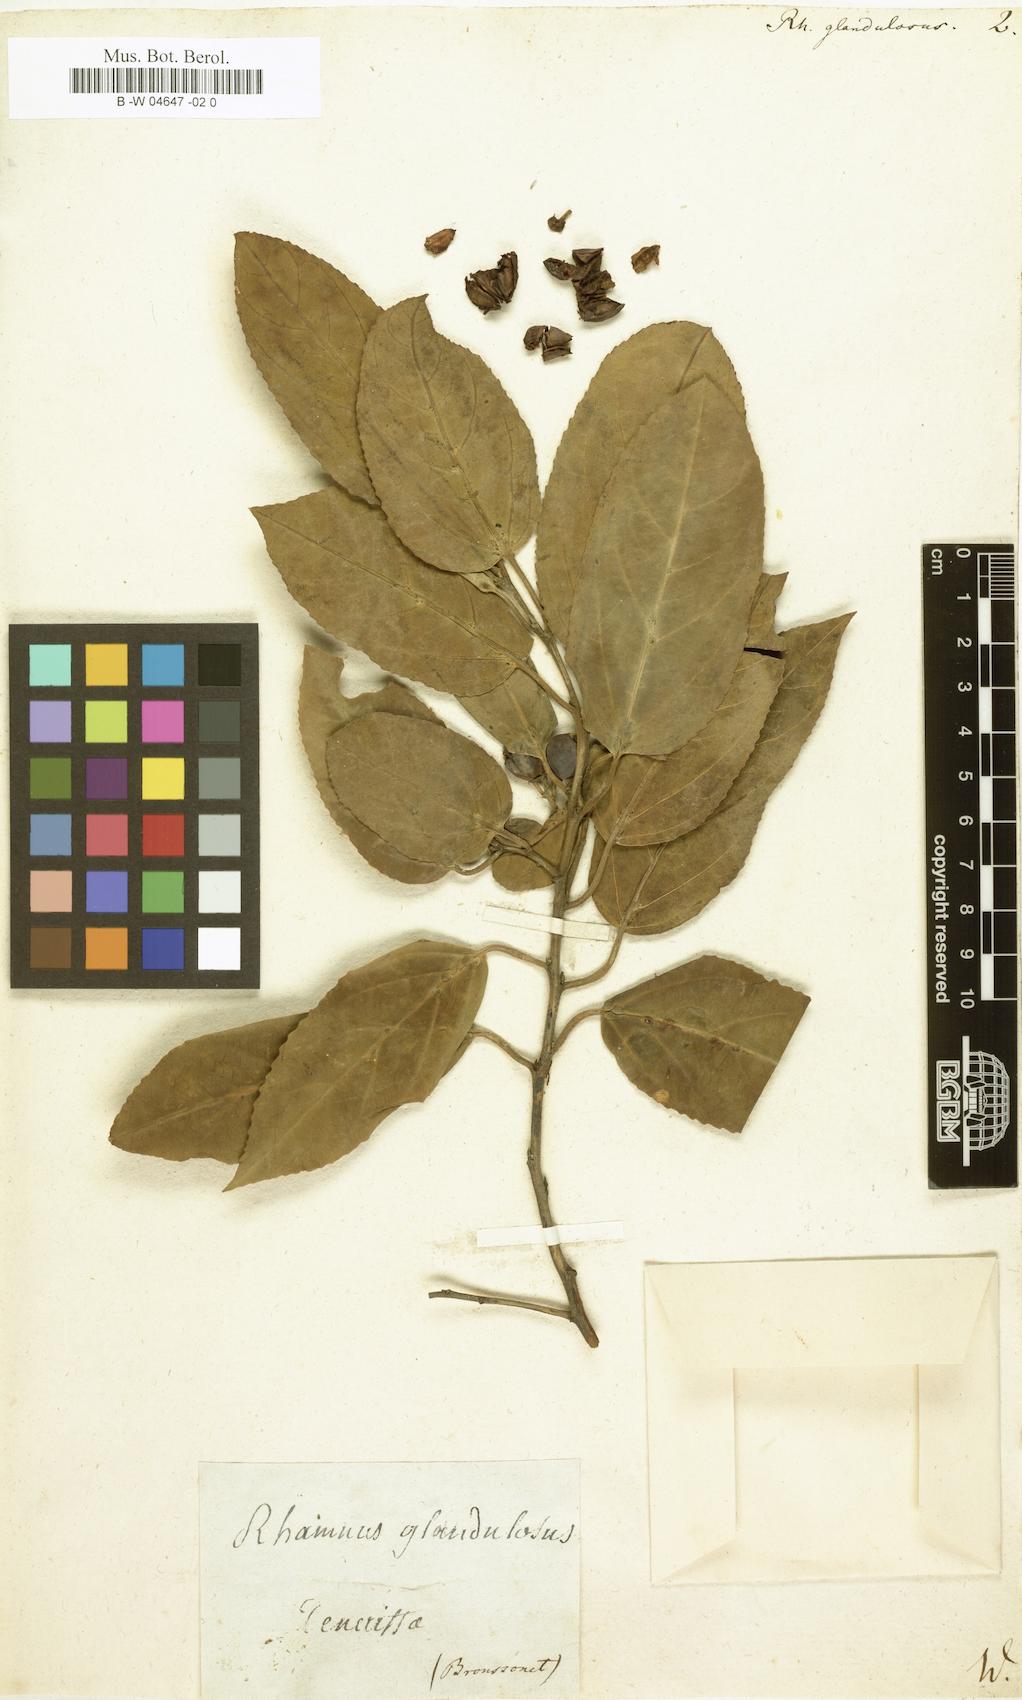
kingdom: Plantae
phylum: Tracheophyta
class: Magnoliopsida
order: Rosales
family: Rhamnaceae
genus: Rhamnus
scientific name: Rhamnus glandulosa
